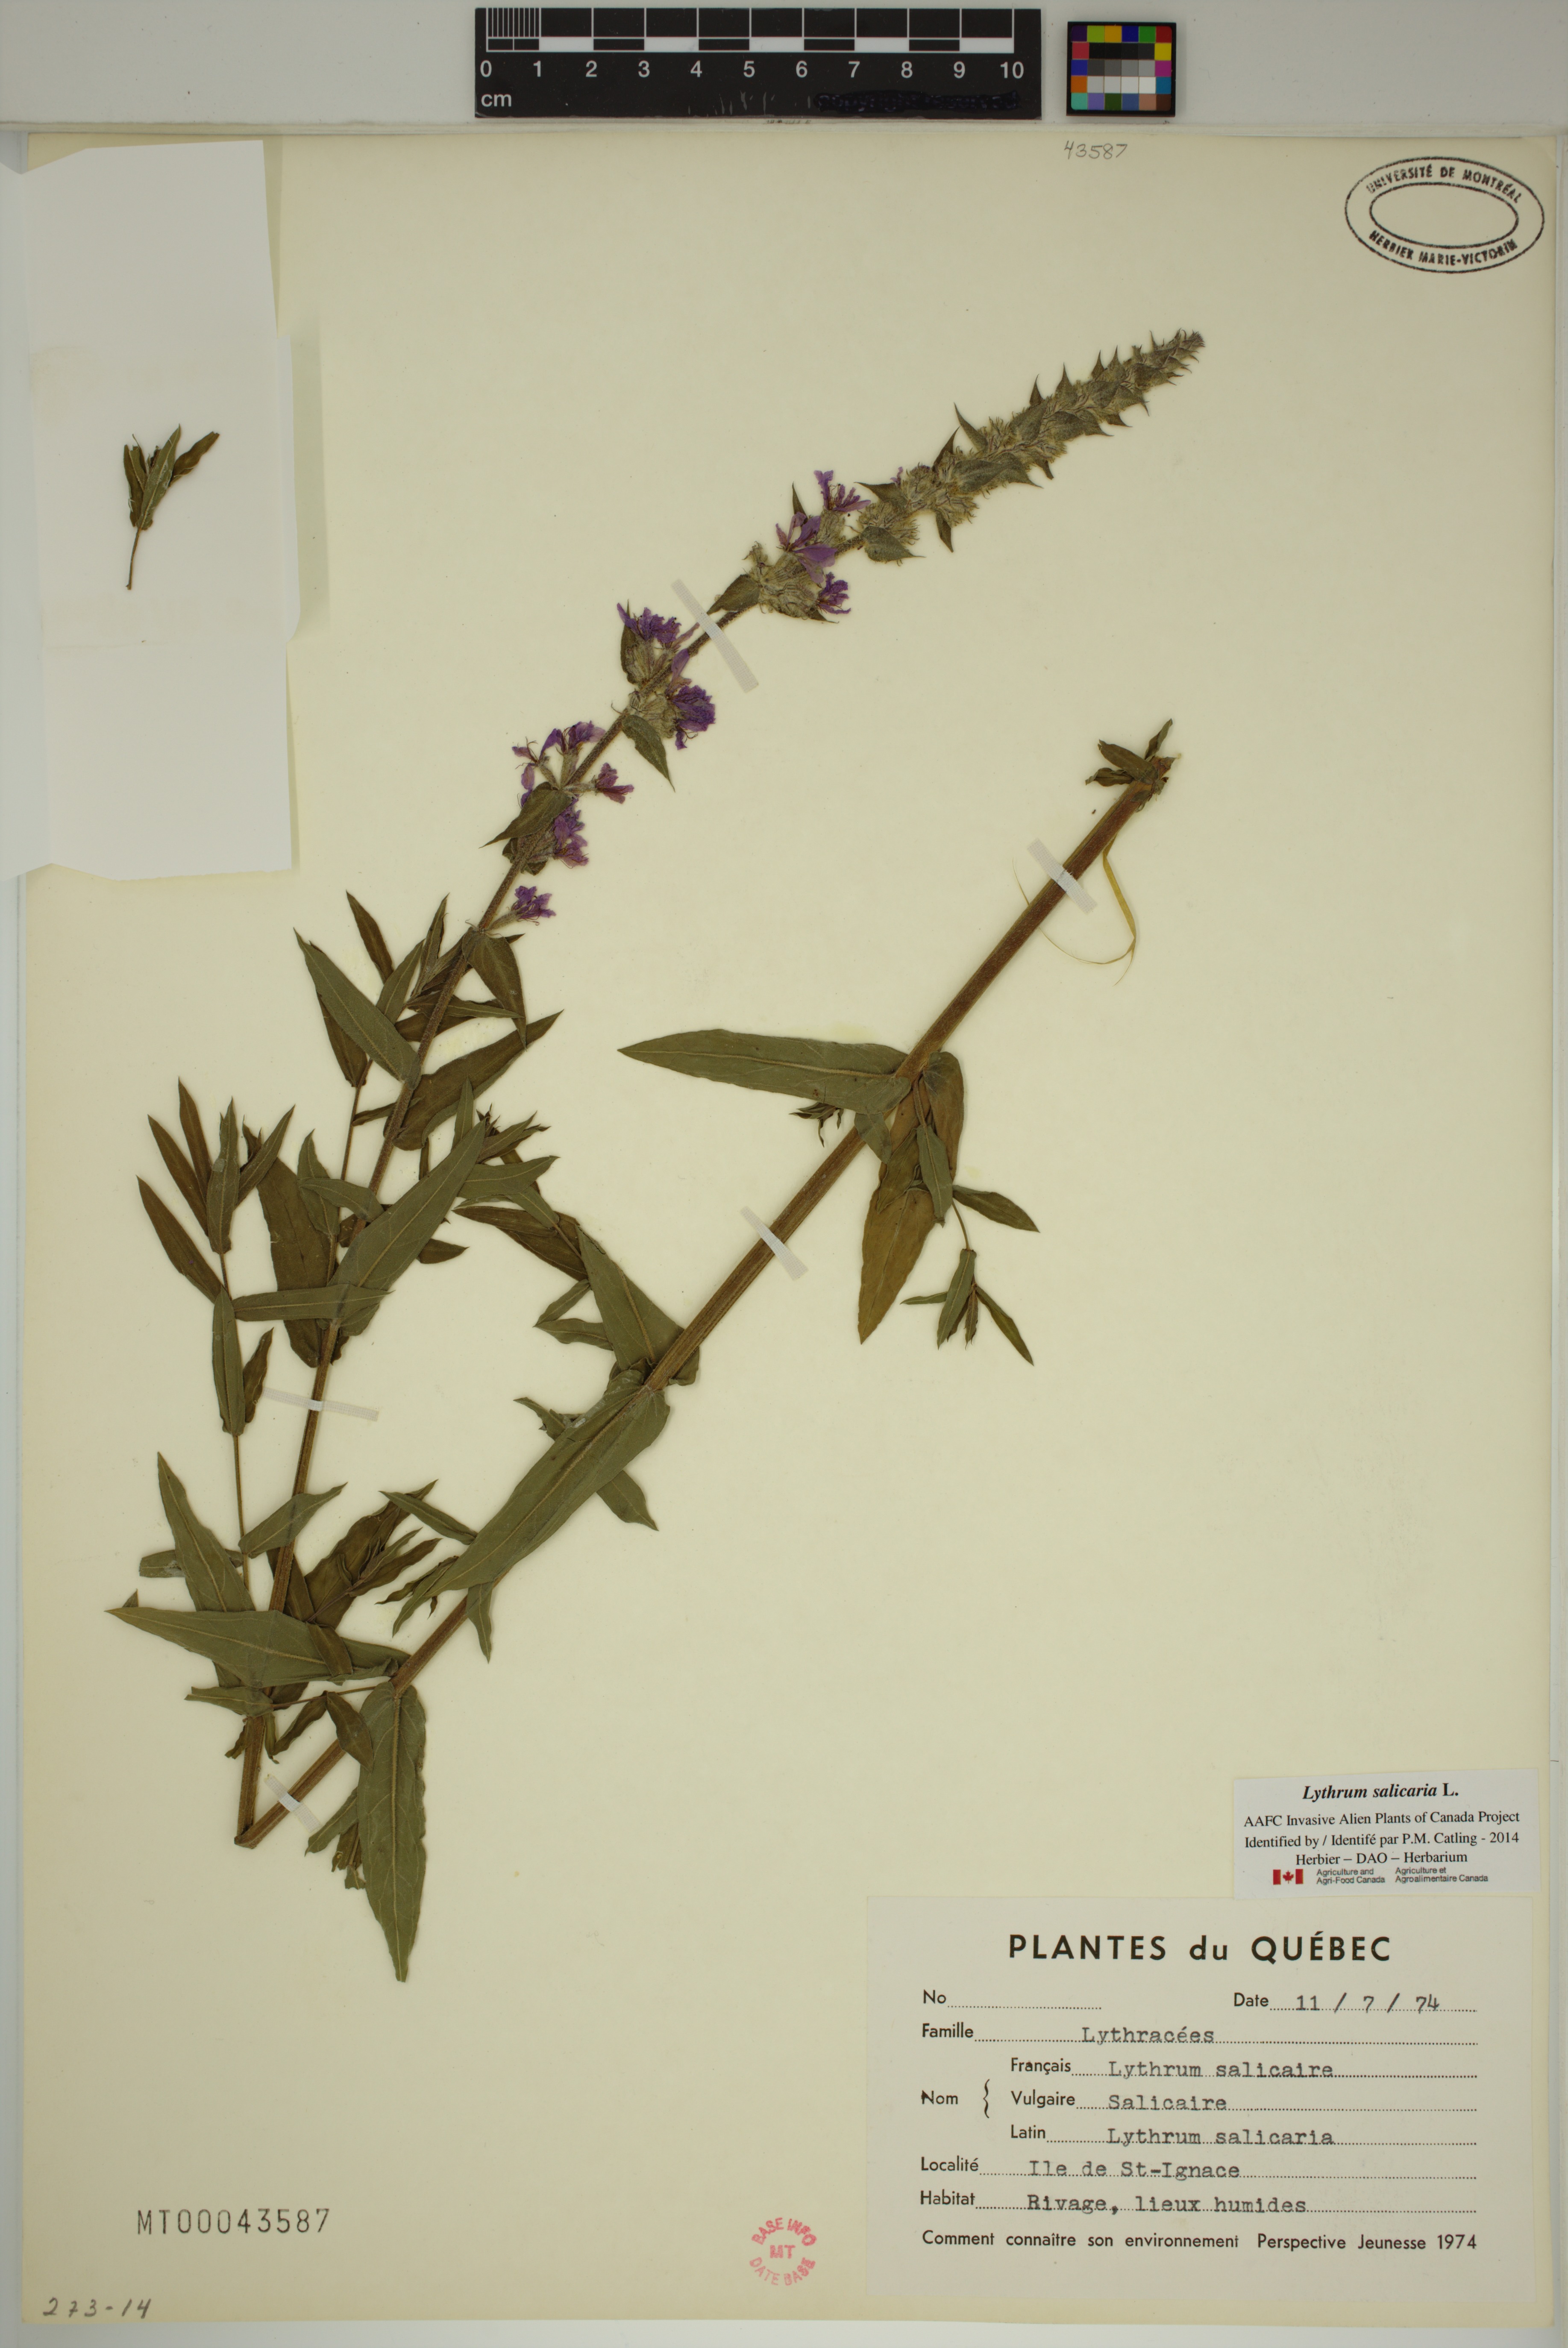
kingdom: Plantae
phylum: Tracheophyta
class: Magnoliopsida
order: Myrtales
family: Lythraceae
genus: Lythrum
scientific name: Lythrum salicaria
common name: Purple loosestrife
